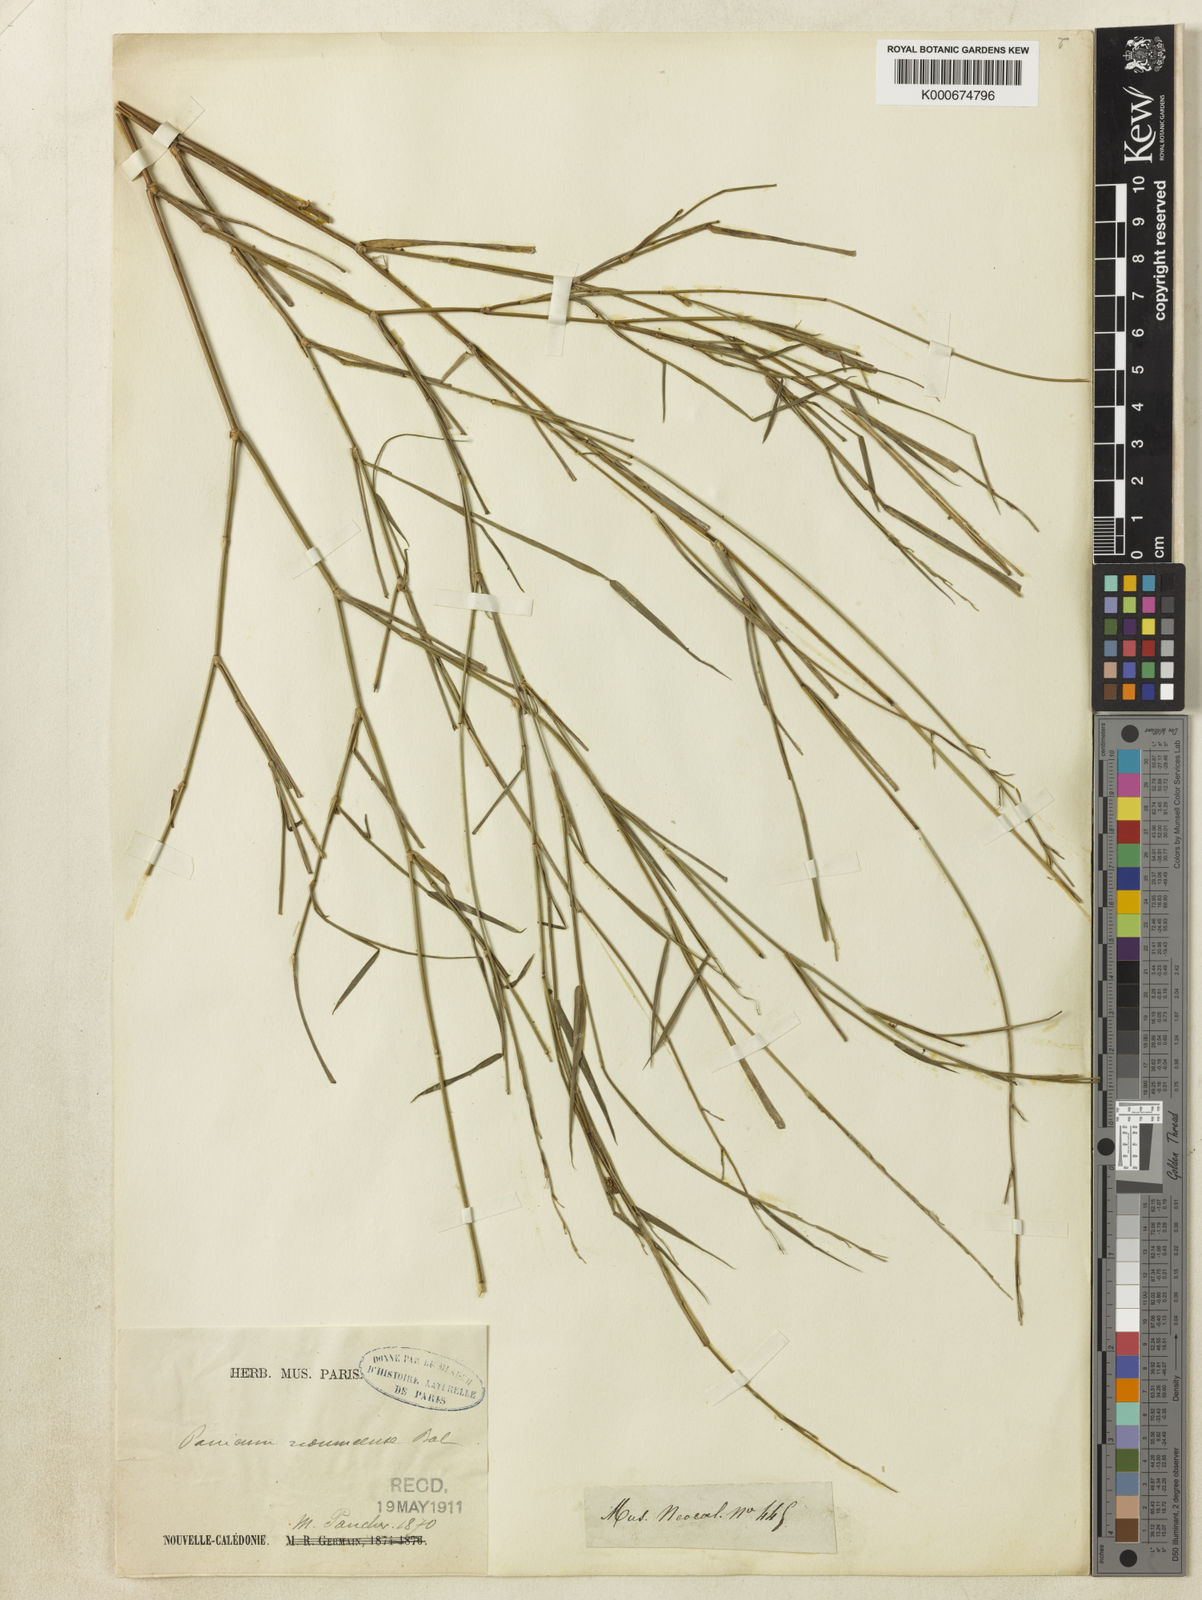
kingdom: Plantae
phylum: Tracheophyta
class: Liliopsida
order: Poales
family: Poaceae
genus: Panicum
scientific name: Panicum
